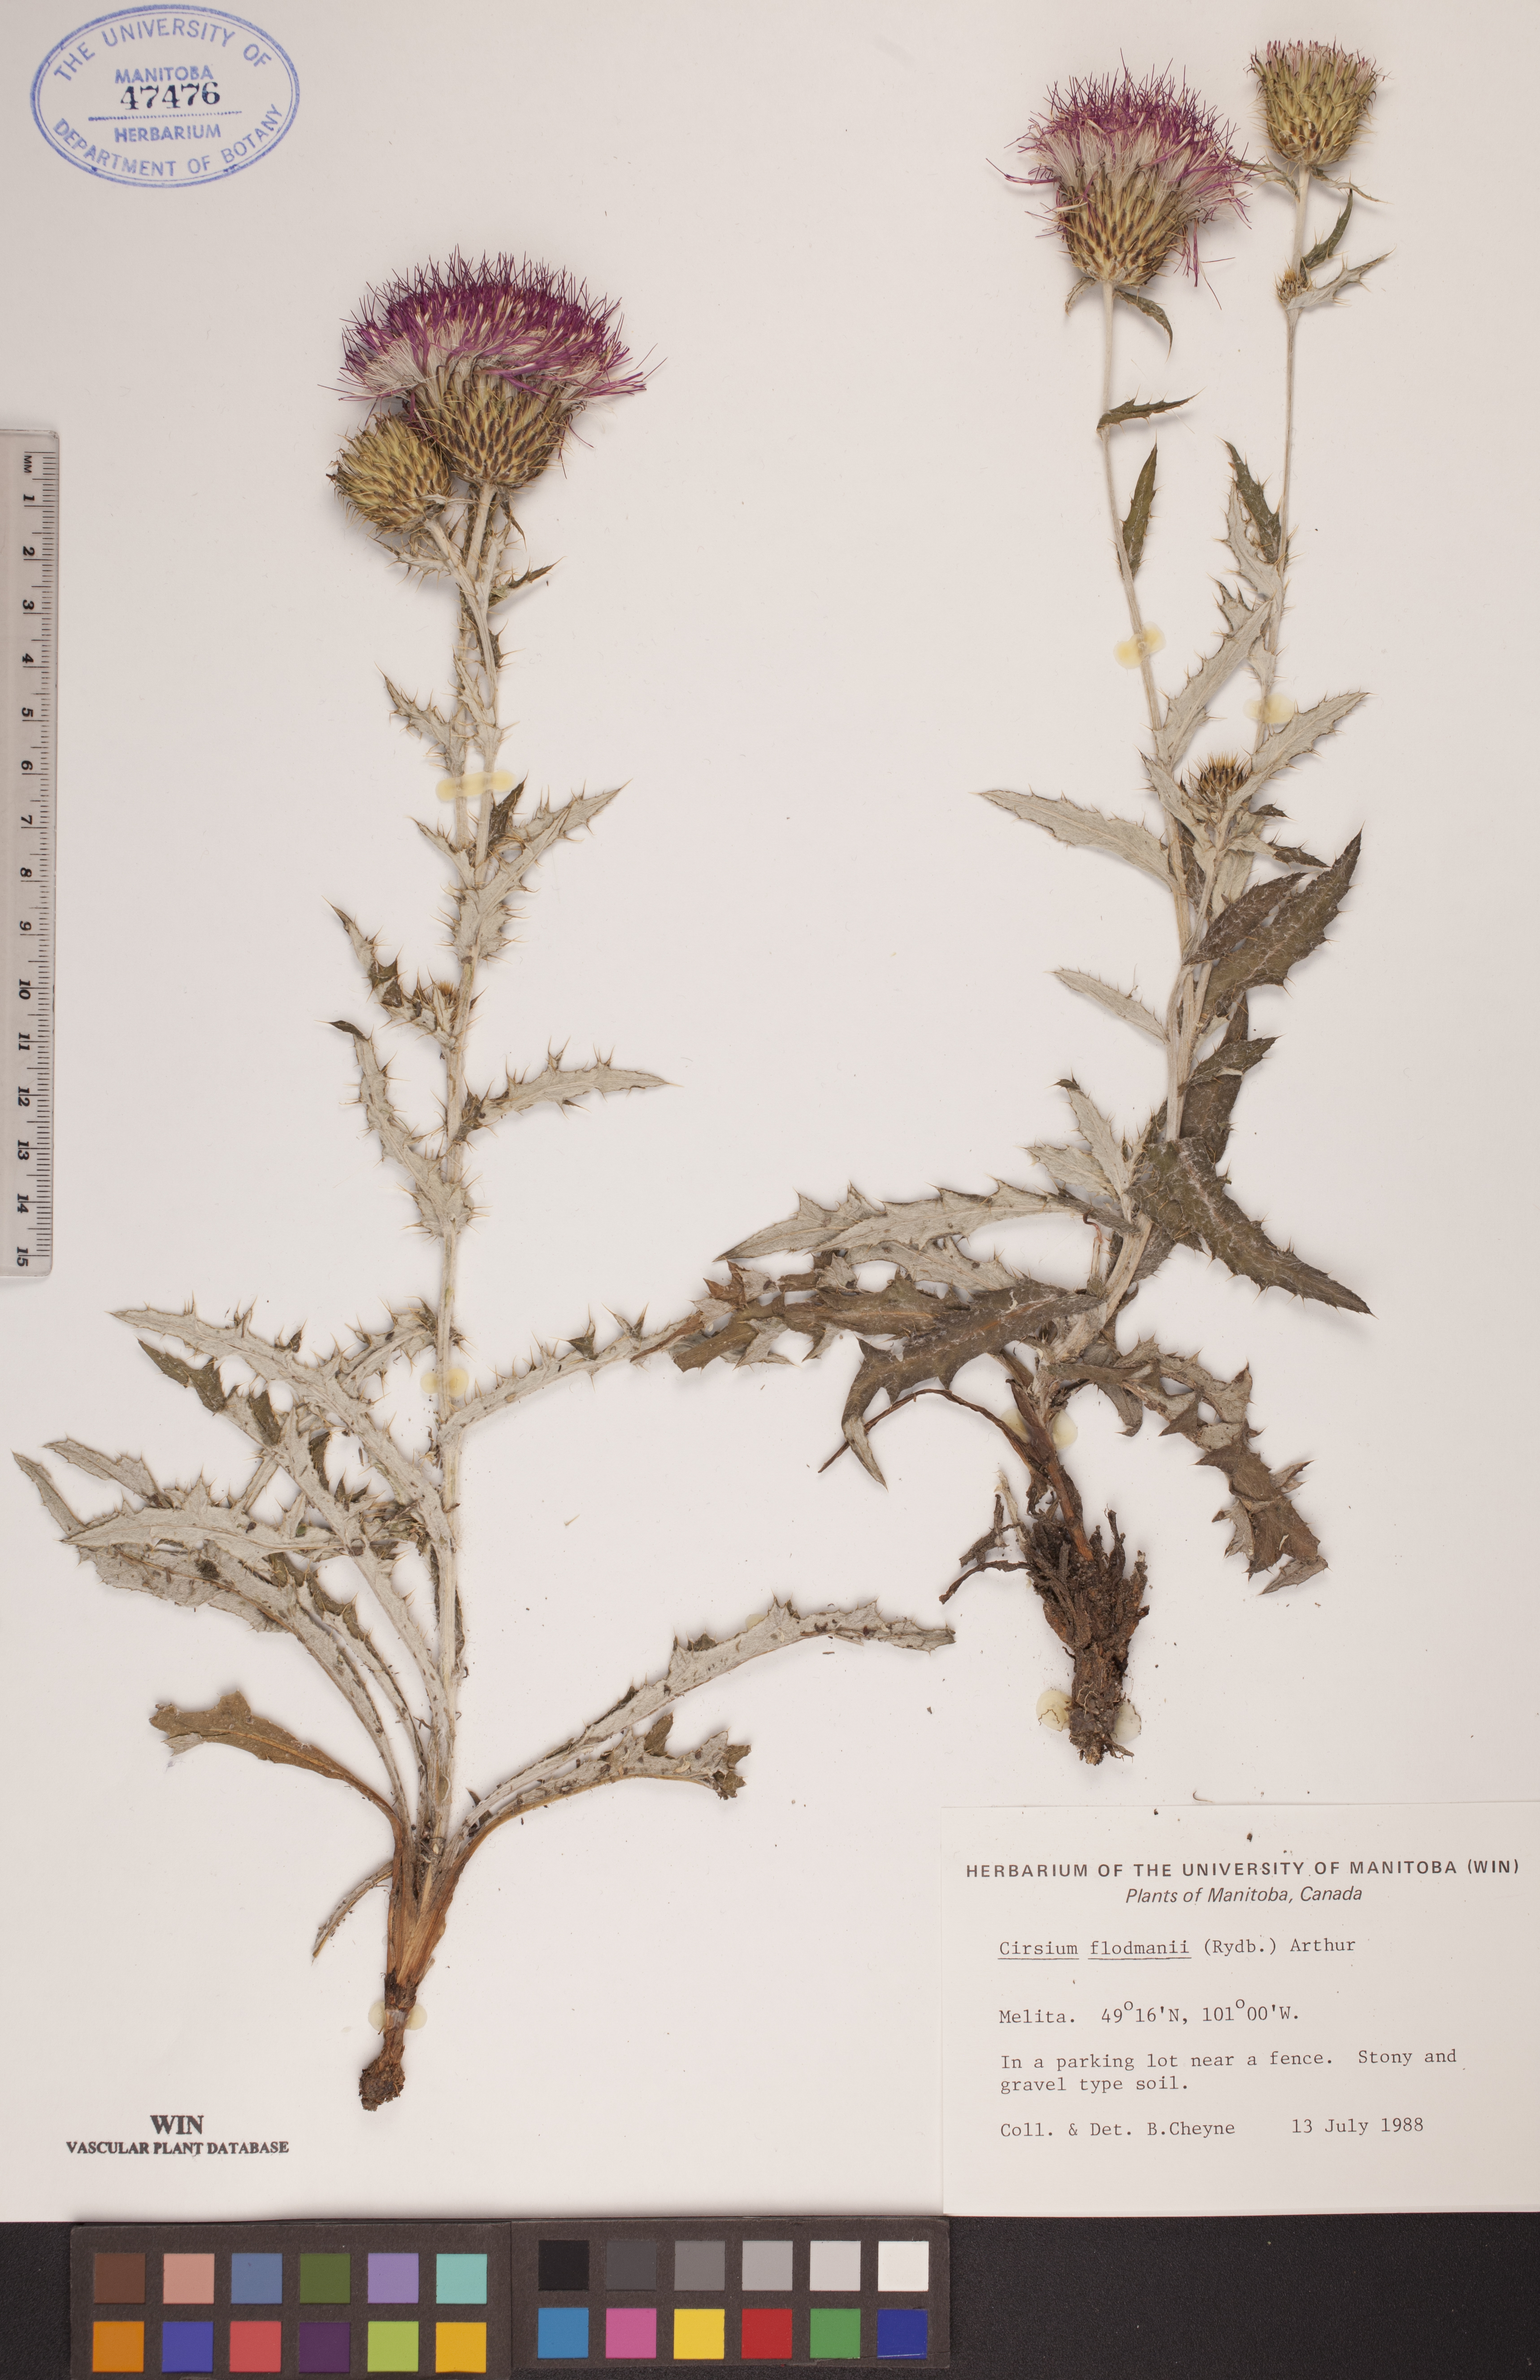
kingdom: Plantae
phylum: Tracheophyta
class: Magnoliopsida
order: Asterales
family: Asteraceae
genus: Cirsium
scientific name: Cirsium flodmanii
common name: Flodman's thistle
